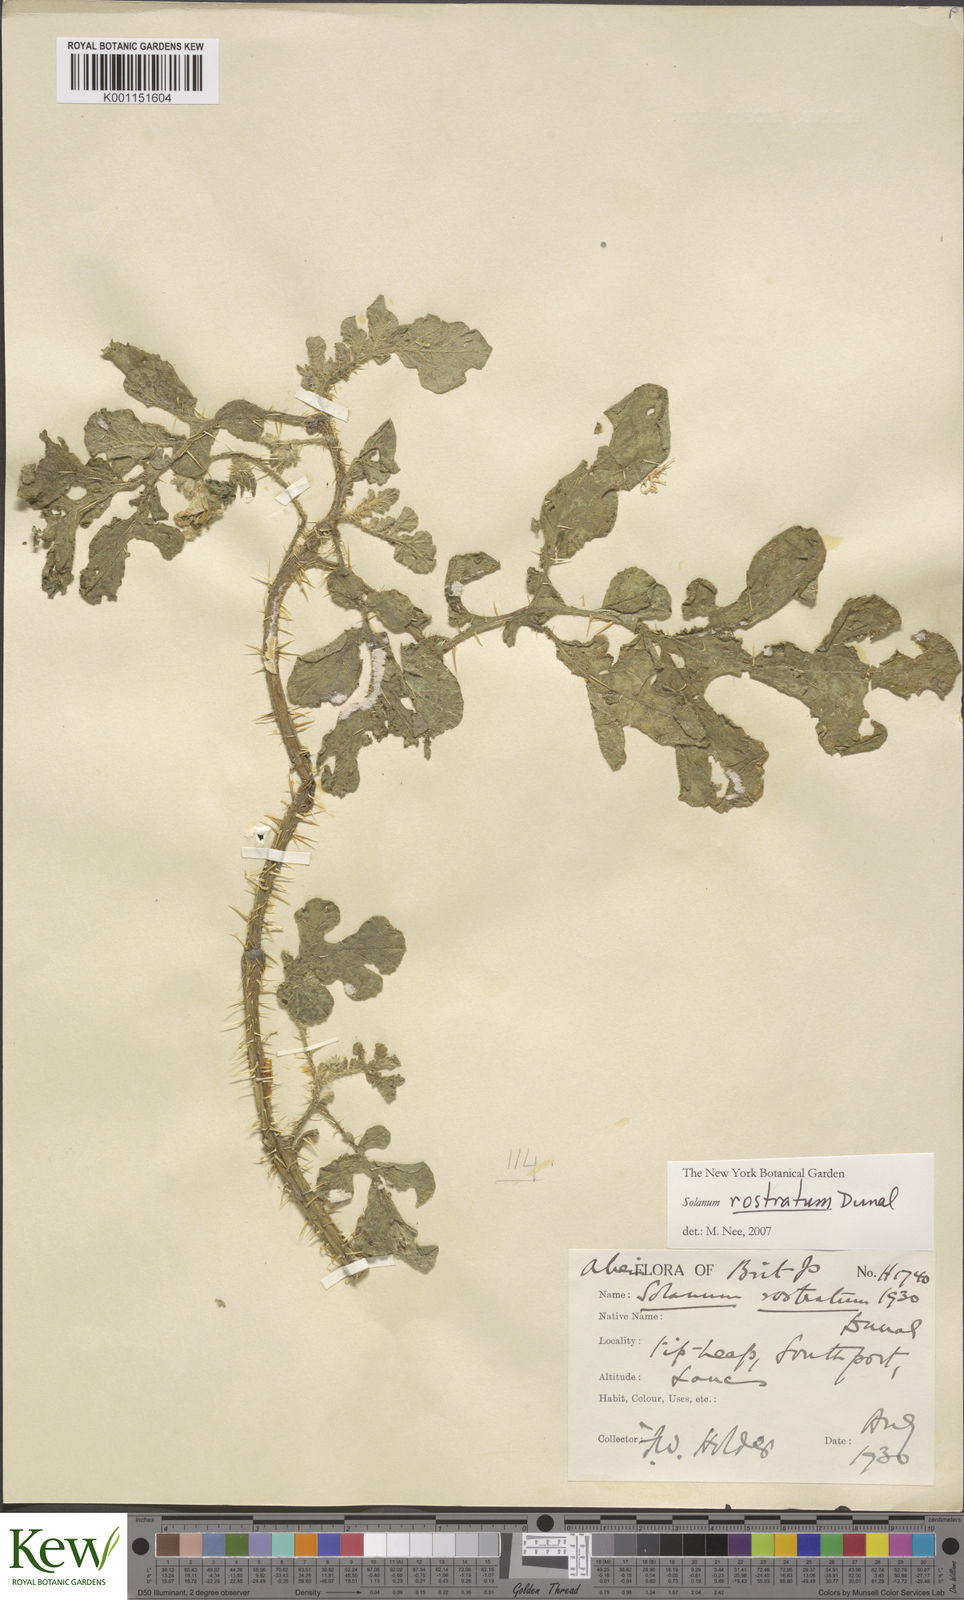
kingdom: Plantae
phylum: Tracheophyta
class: Magnoliopsida
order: Solanales
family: Solanaceae
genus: Solanum
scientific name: Solanum angustifolium
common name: Buffalobur nightshade
